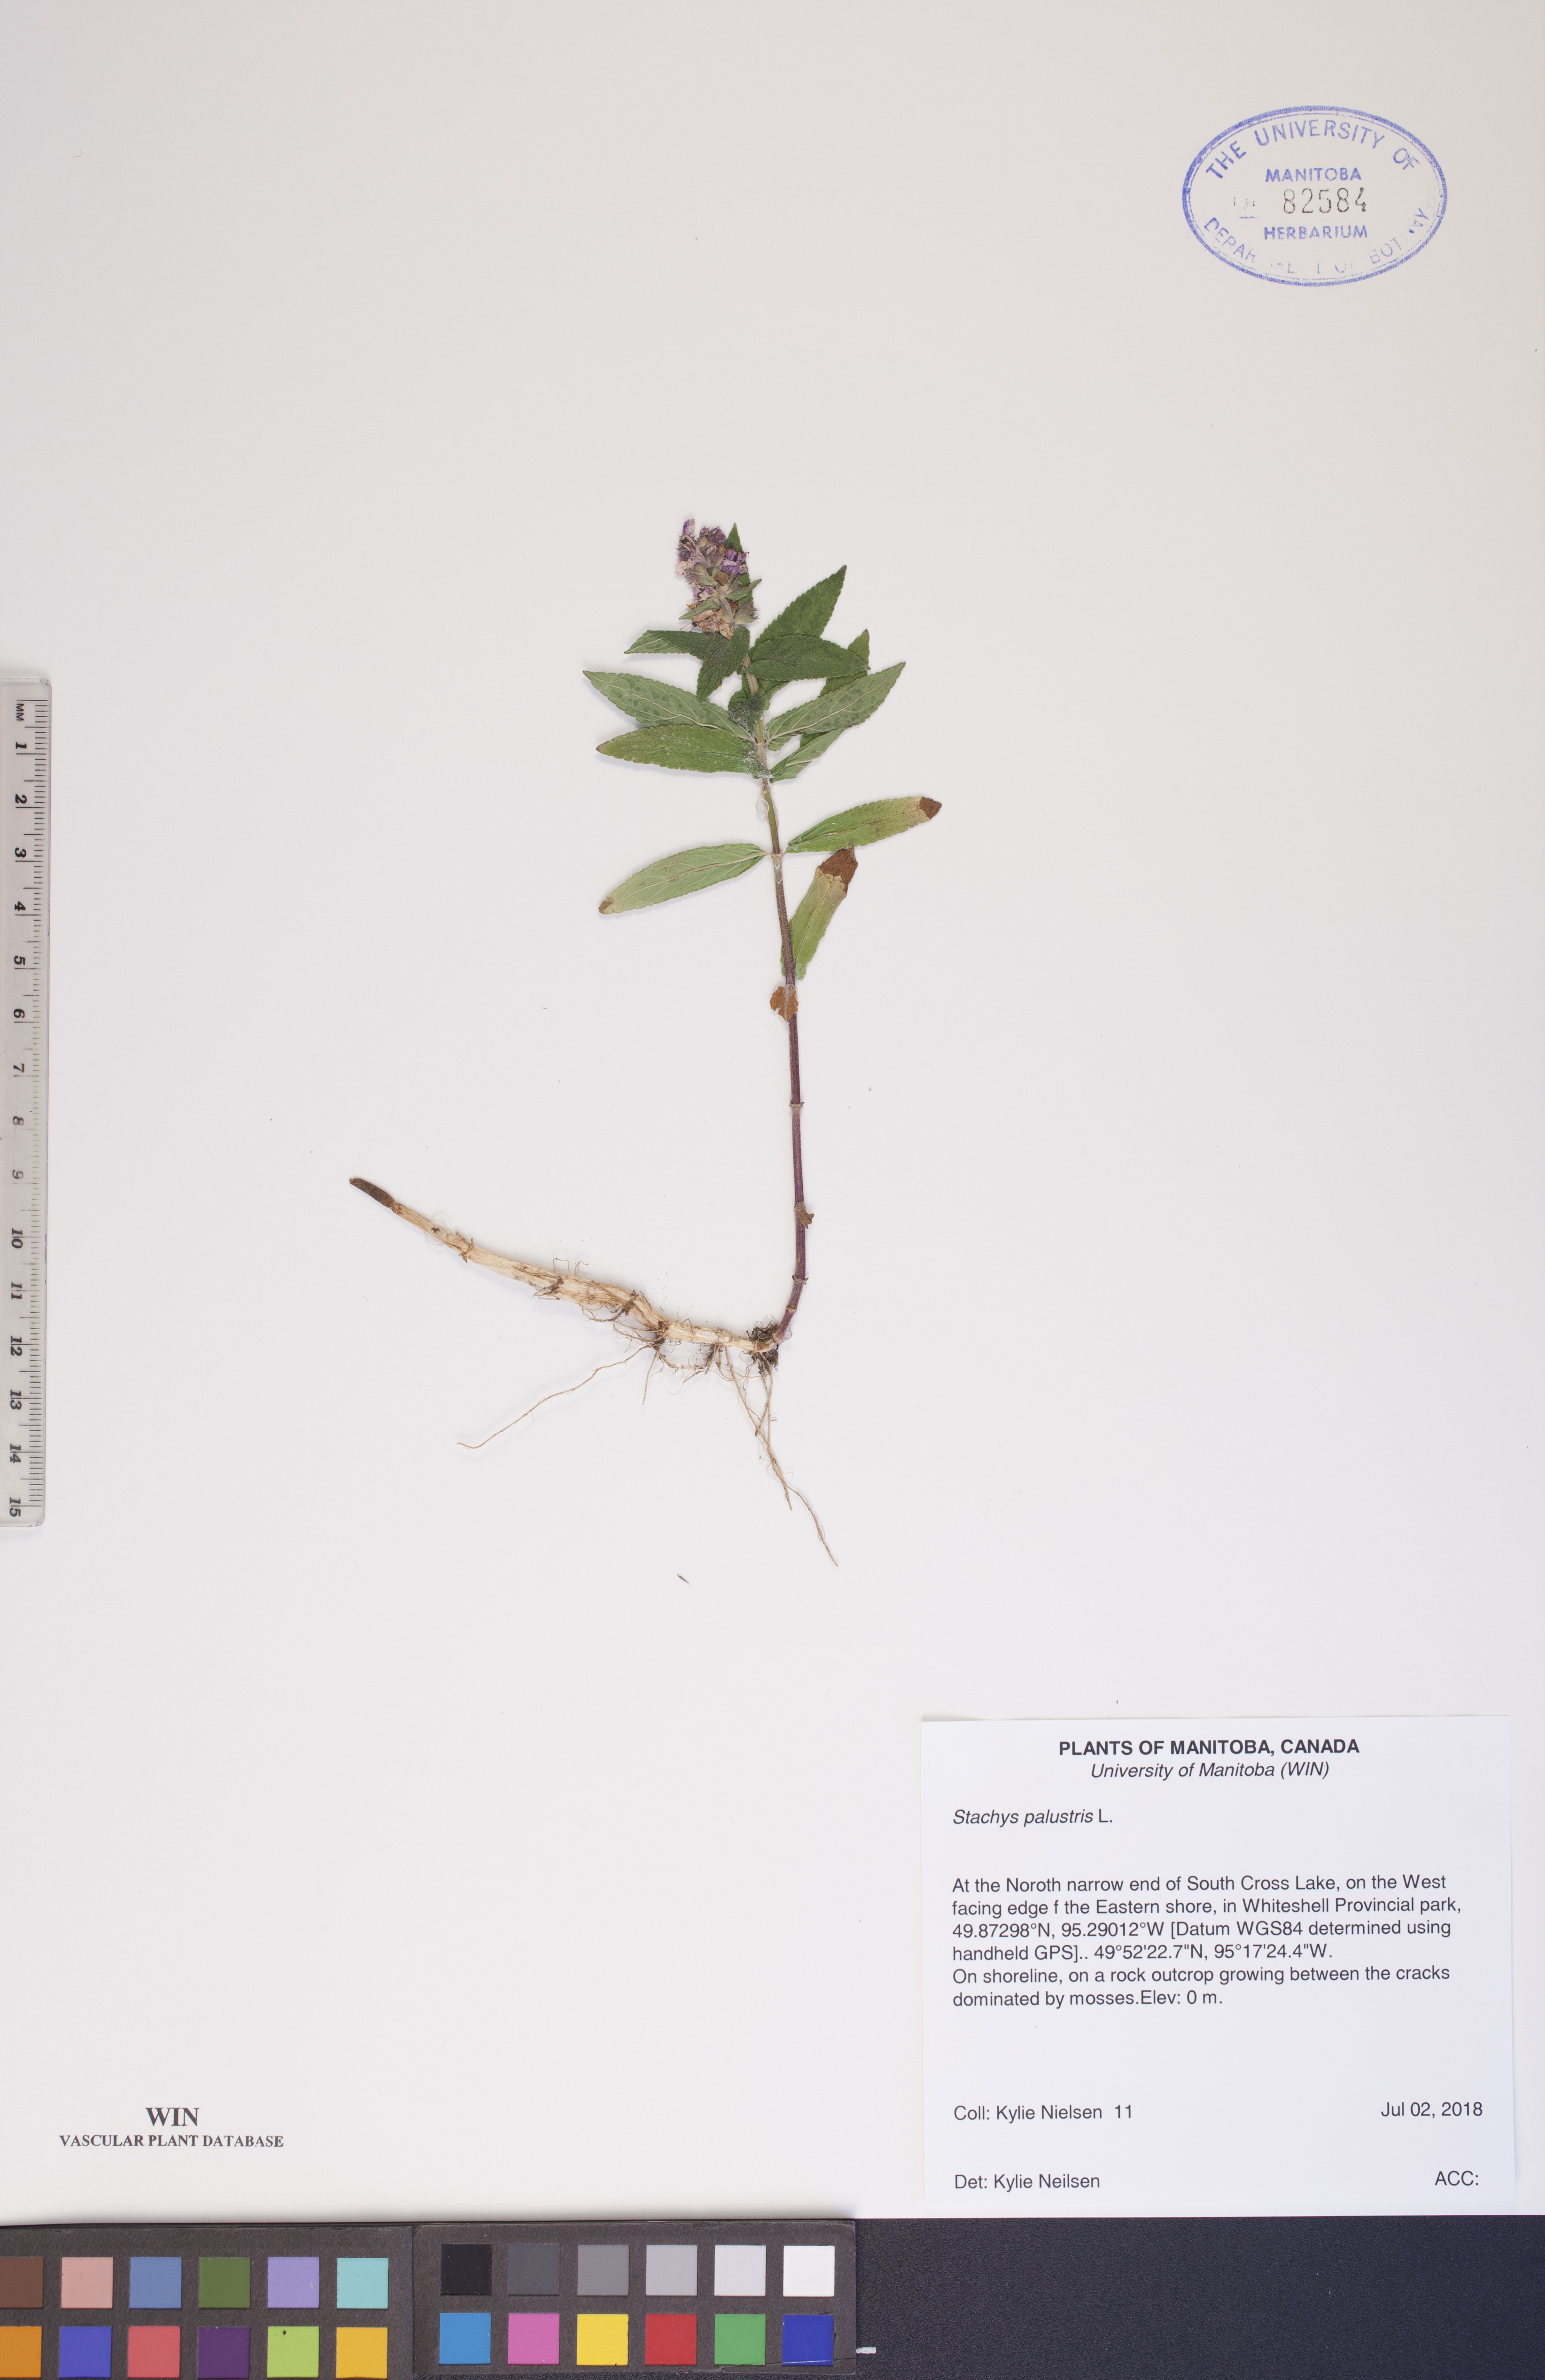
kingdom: Plantae
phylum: Tracheophyta
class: Magnoliopsida
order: Lamiales
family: Lamiaceae
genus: Stachys
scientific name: Stachys palustris
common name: Marsh woundwort
